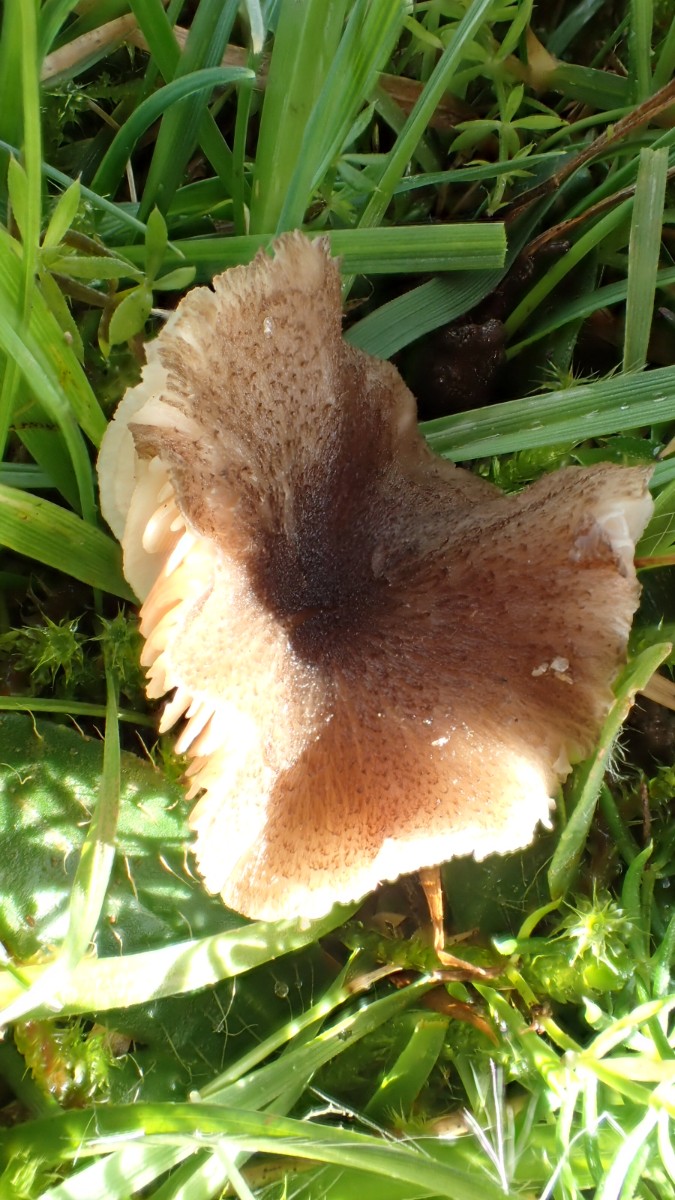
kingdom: Fungi
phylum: Basidiomycota
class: Agaricomycetes
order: Agaricales
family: Entolomataceae
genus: Entoloma
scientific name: Entoloma
